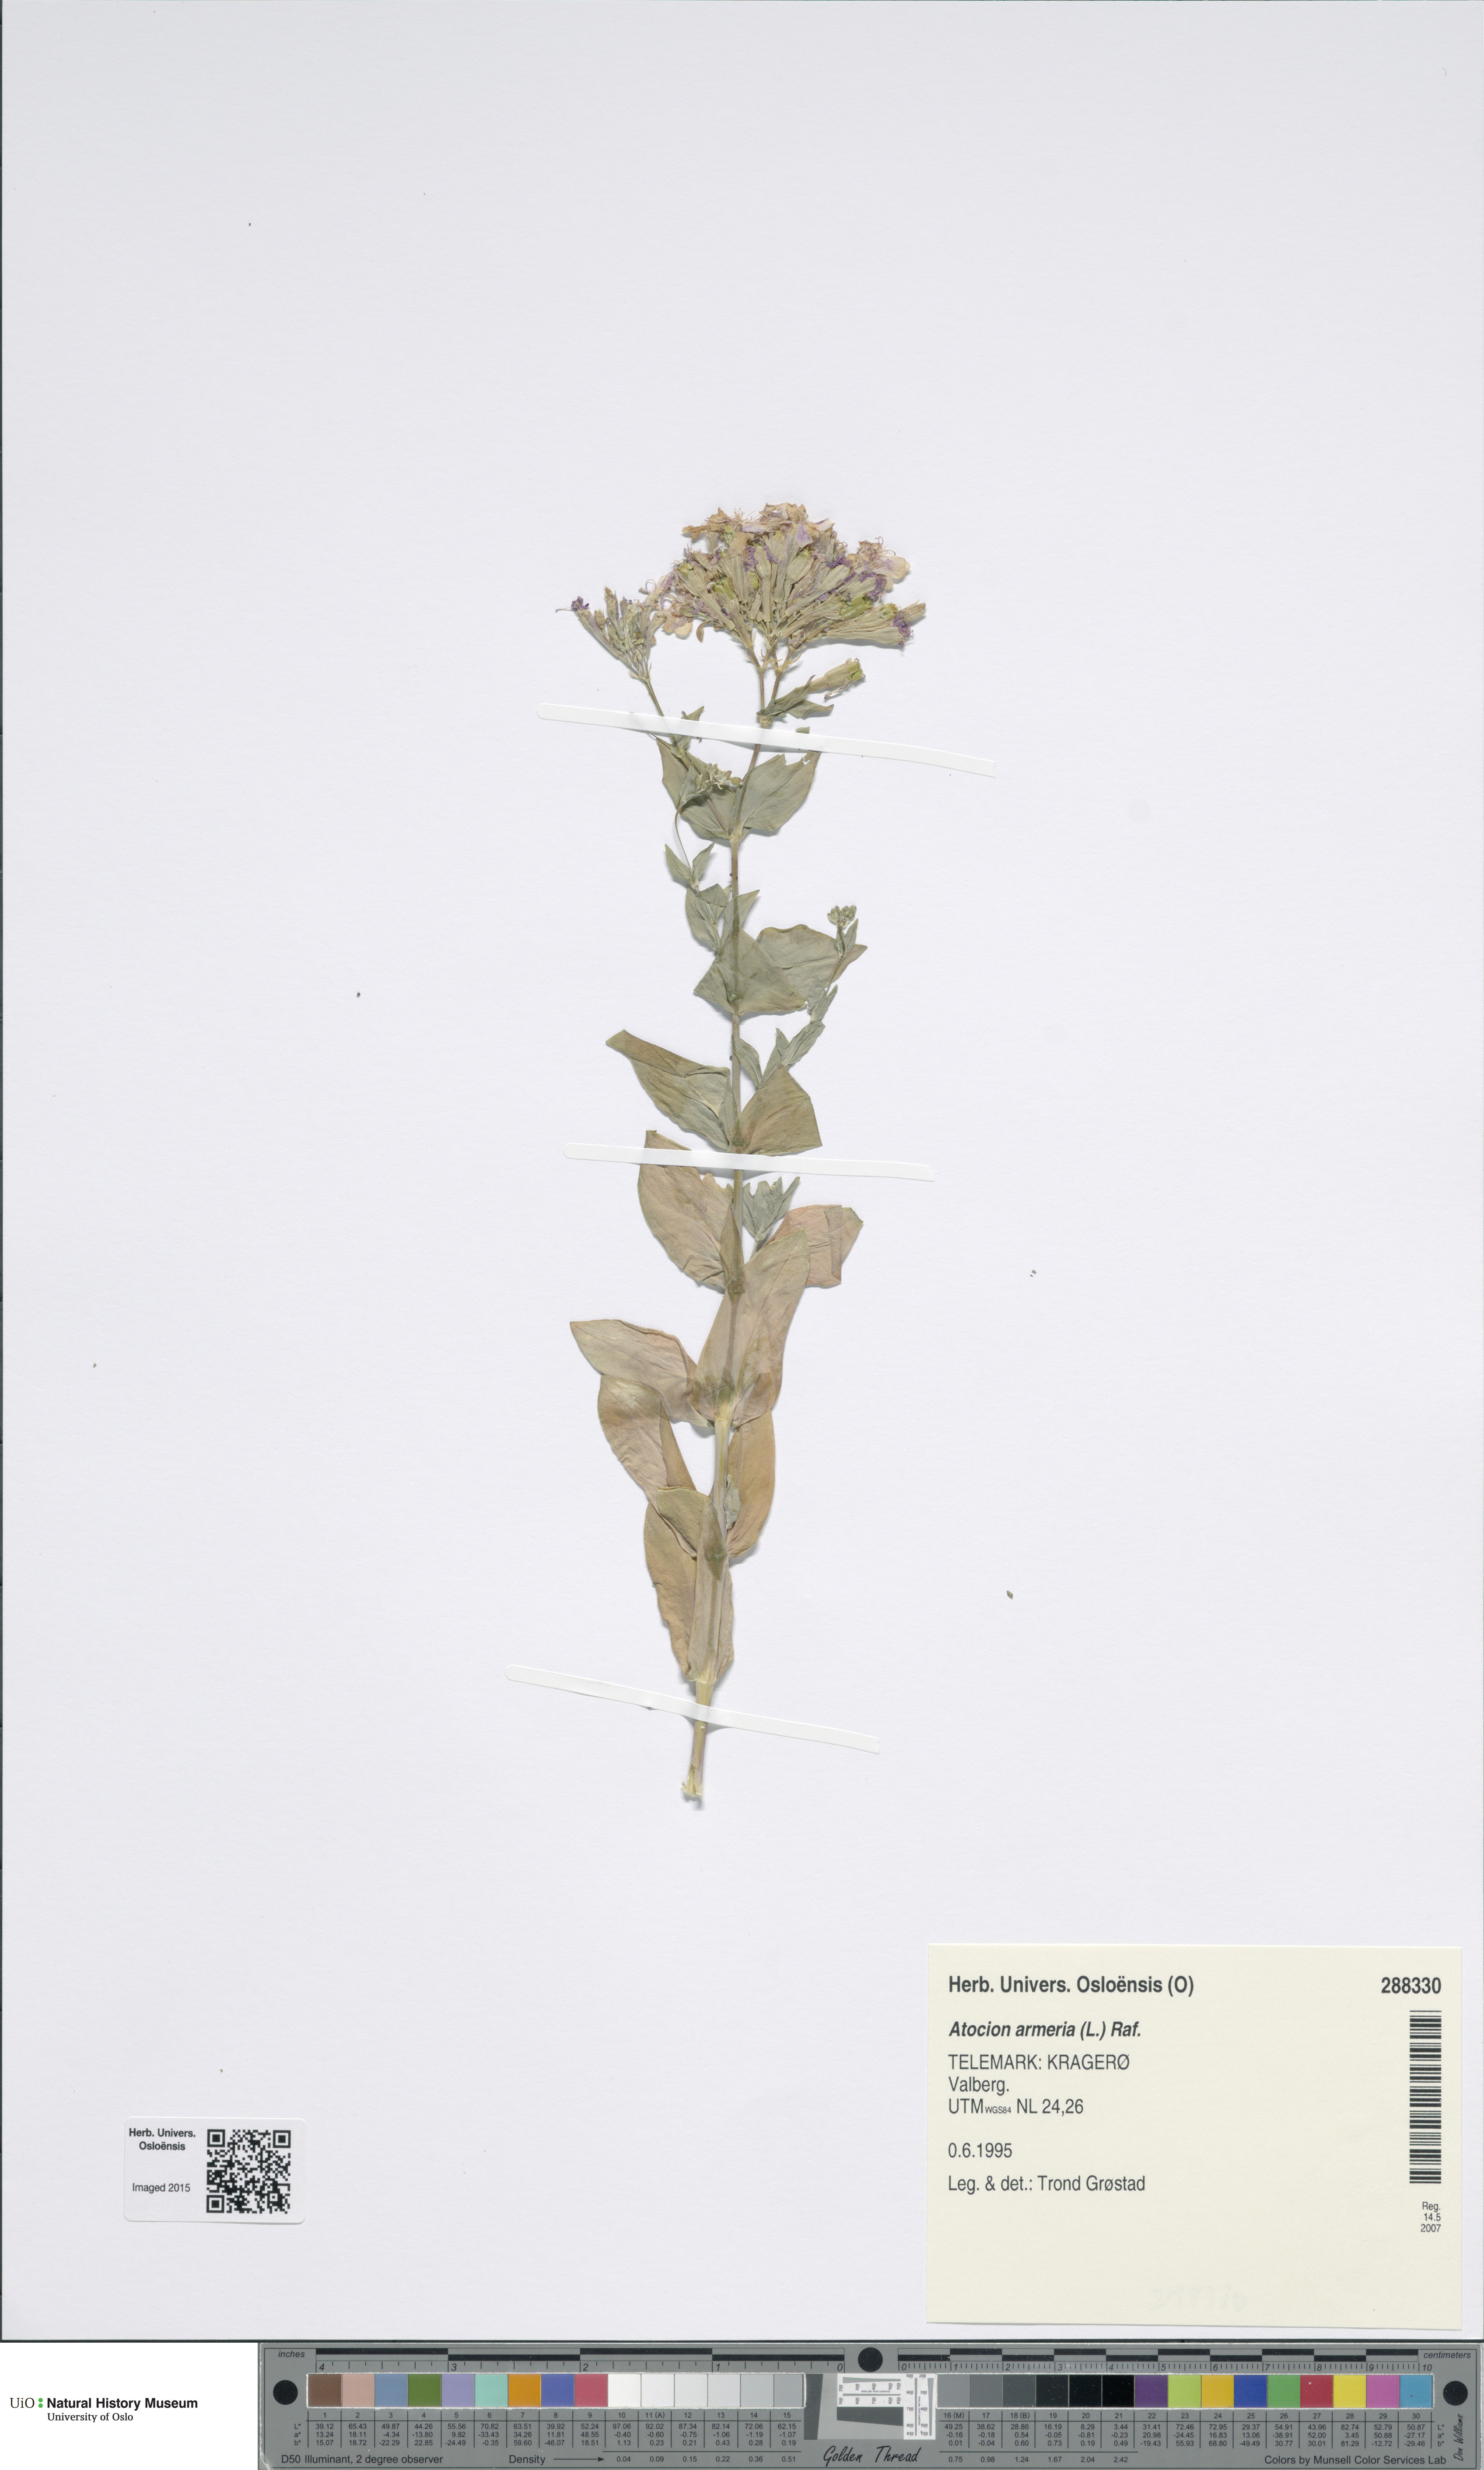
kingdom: Plantae
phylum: Tracheophyta
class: Magnoliopsida
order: Caryophyllales
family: Caryophyllaceae
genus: Atocion
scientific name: Atocion armeria
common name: Sweet william catchfly
